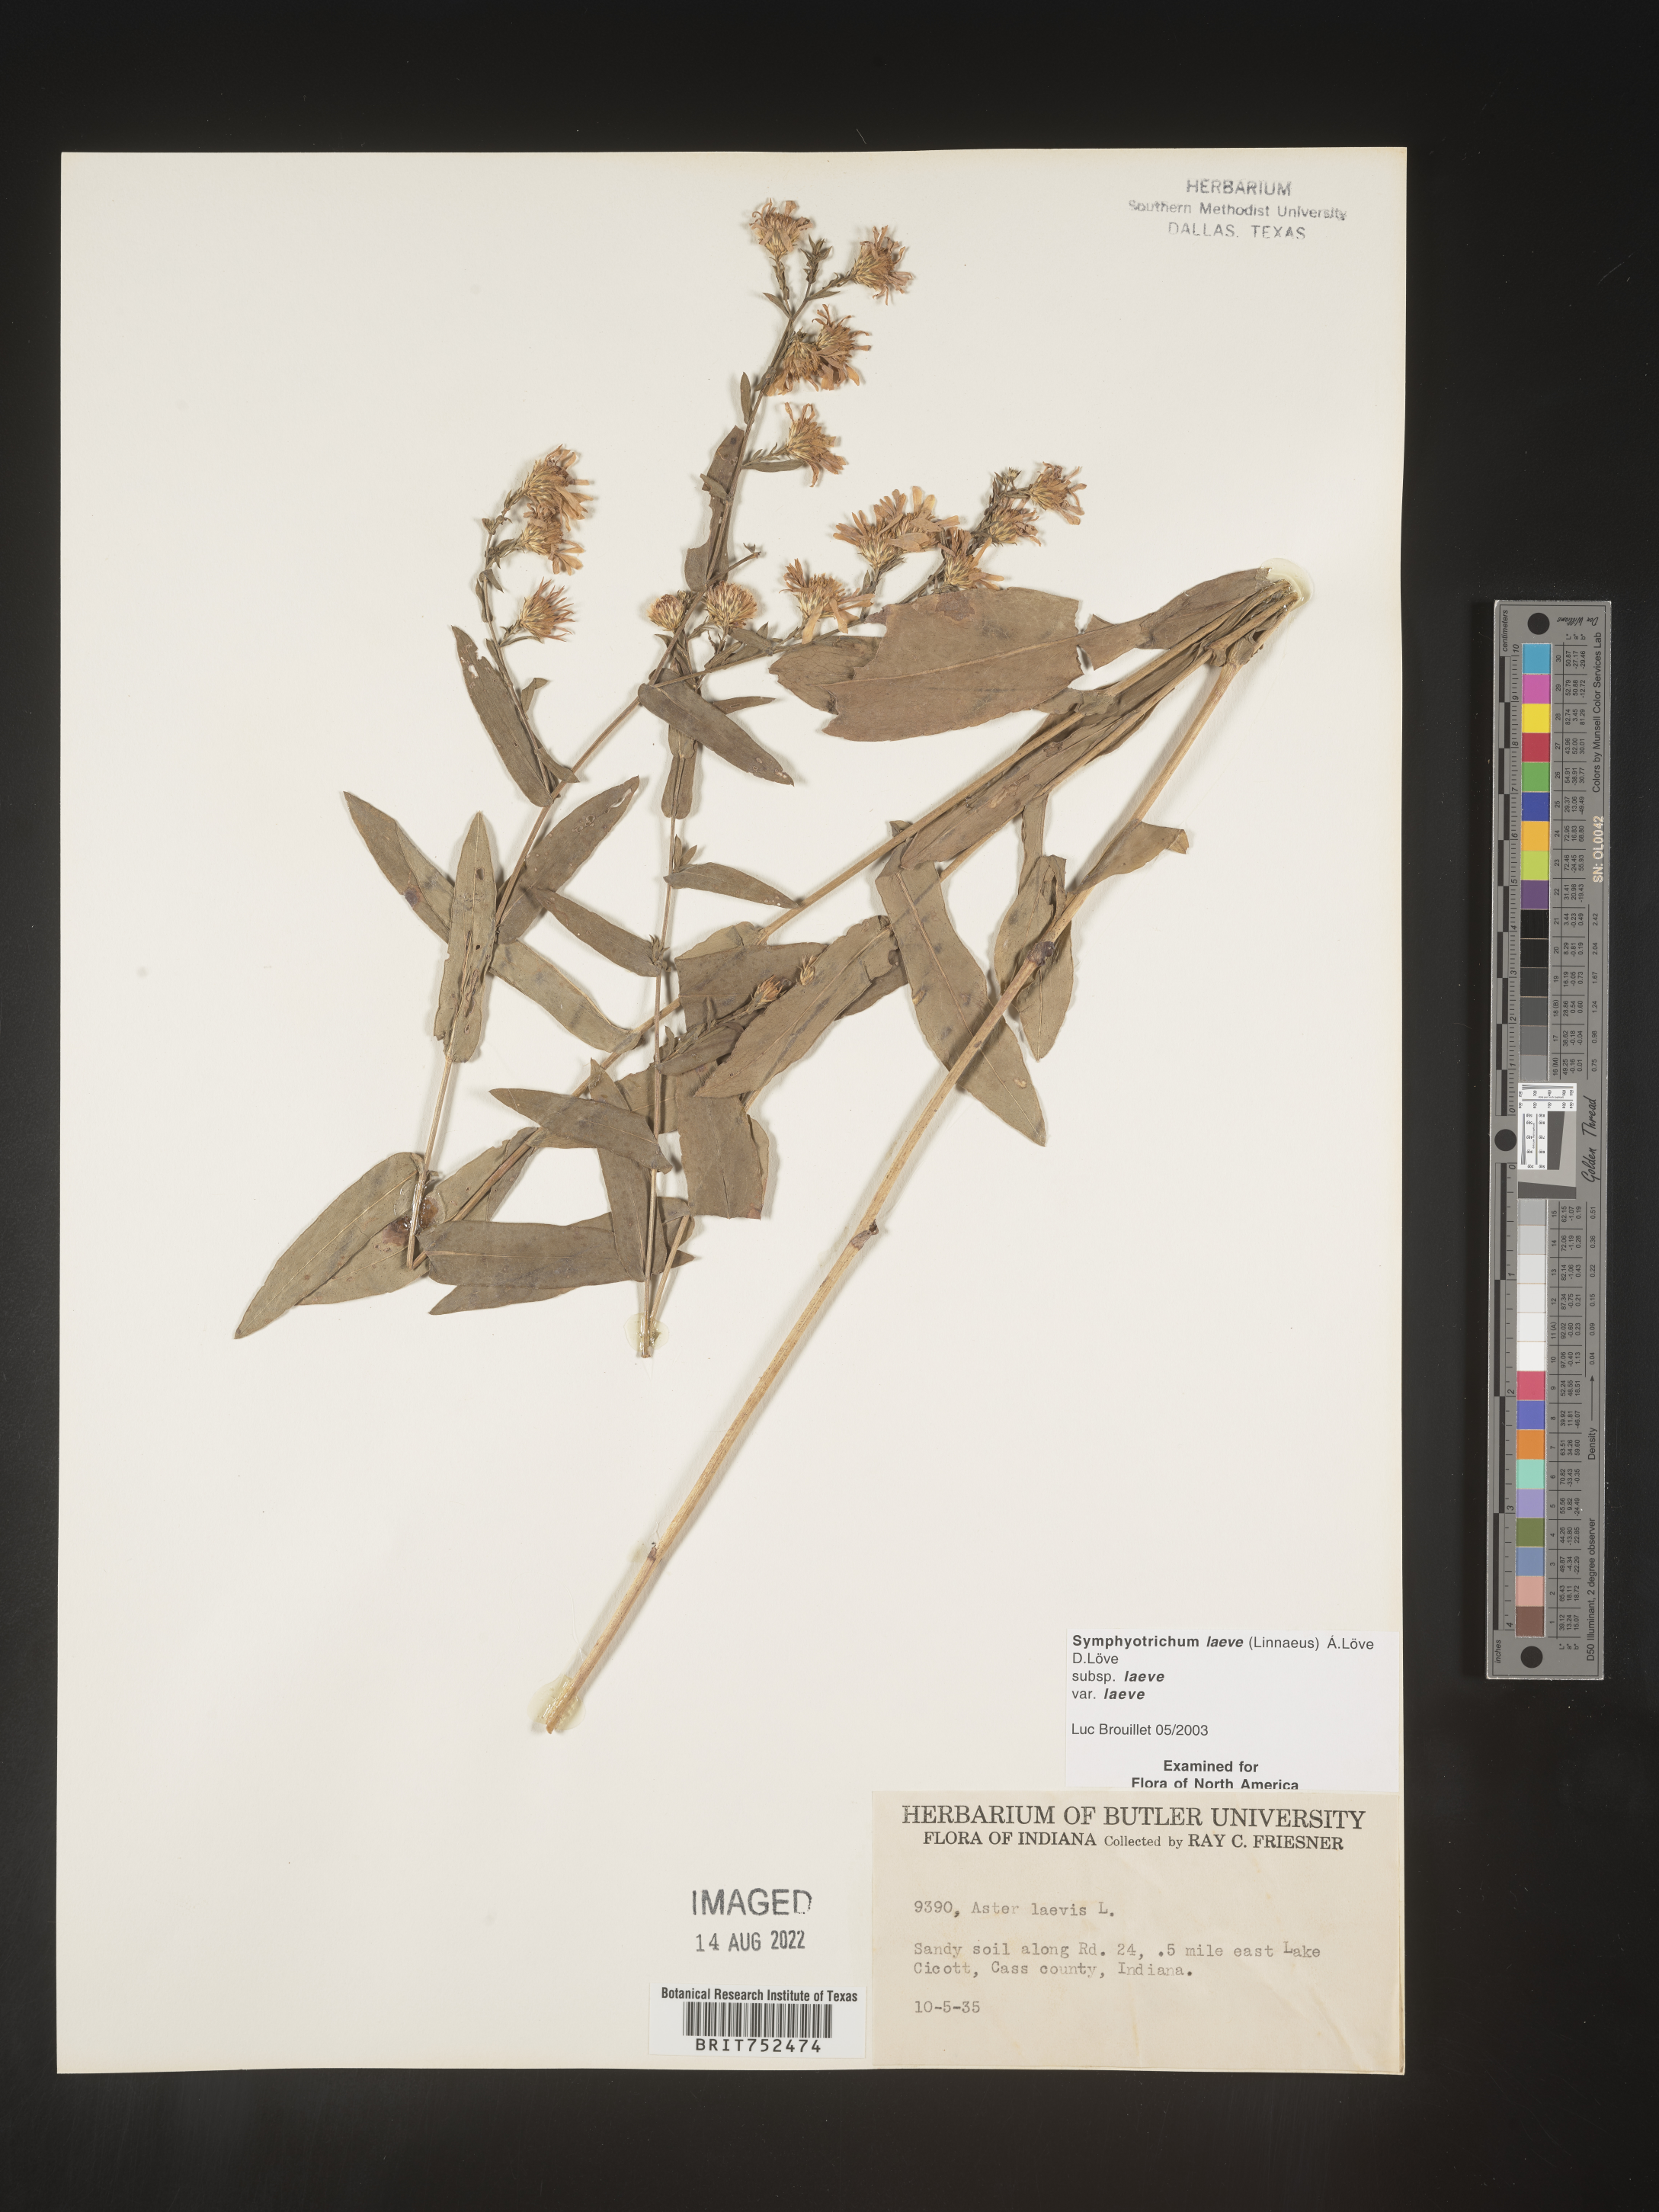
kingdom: Plantae
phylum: Tracheophyta
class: Magnoliopsida
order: Asterales
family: Asteraceae
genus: Symphyotrichum
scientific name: Symphyotrichum laeve
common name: Glaucous aster
